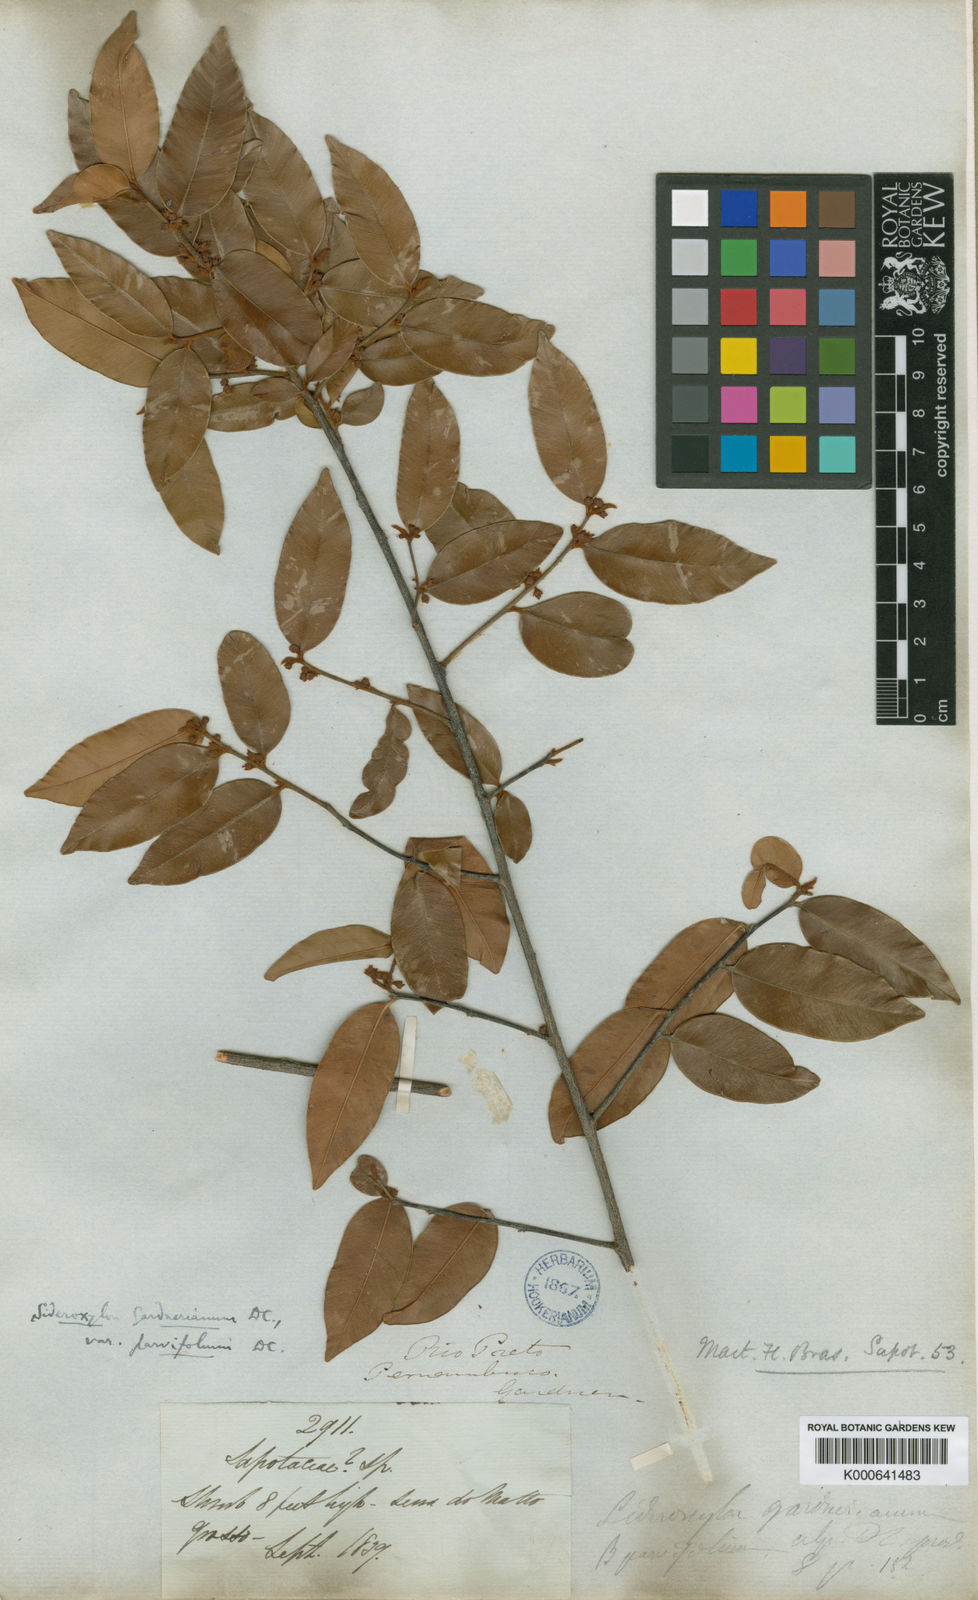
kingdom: Plantae
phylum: Tracheophyta
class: Magnoliopsida
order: Ericales
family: Sapotaceae
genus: Micropholis
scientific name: Micropholis gnaphaloclados
